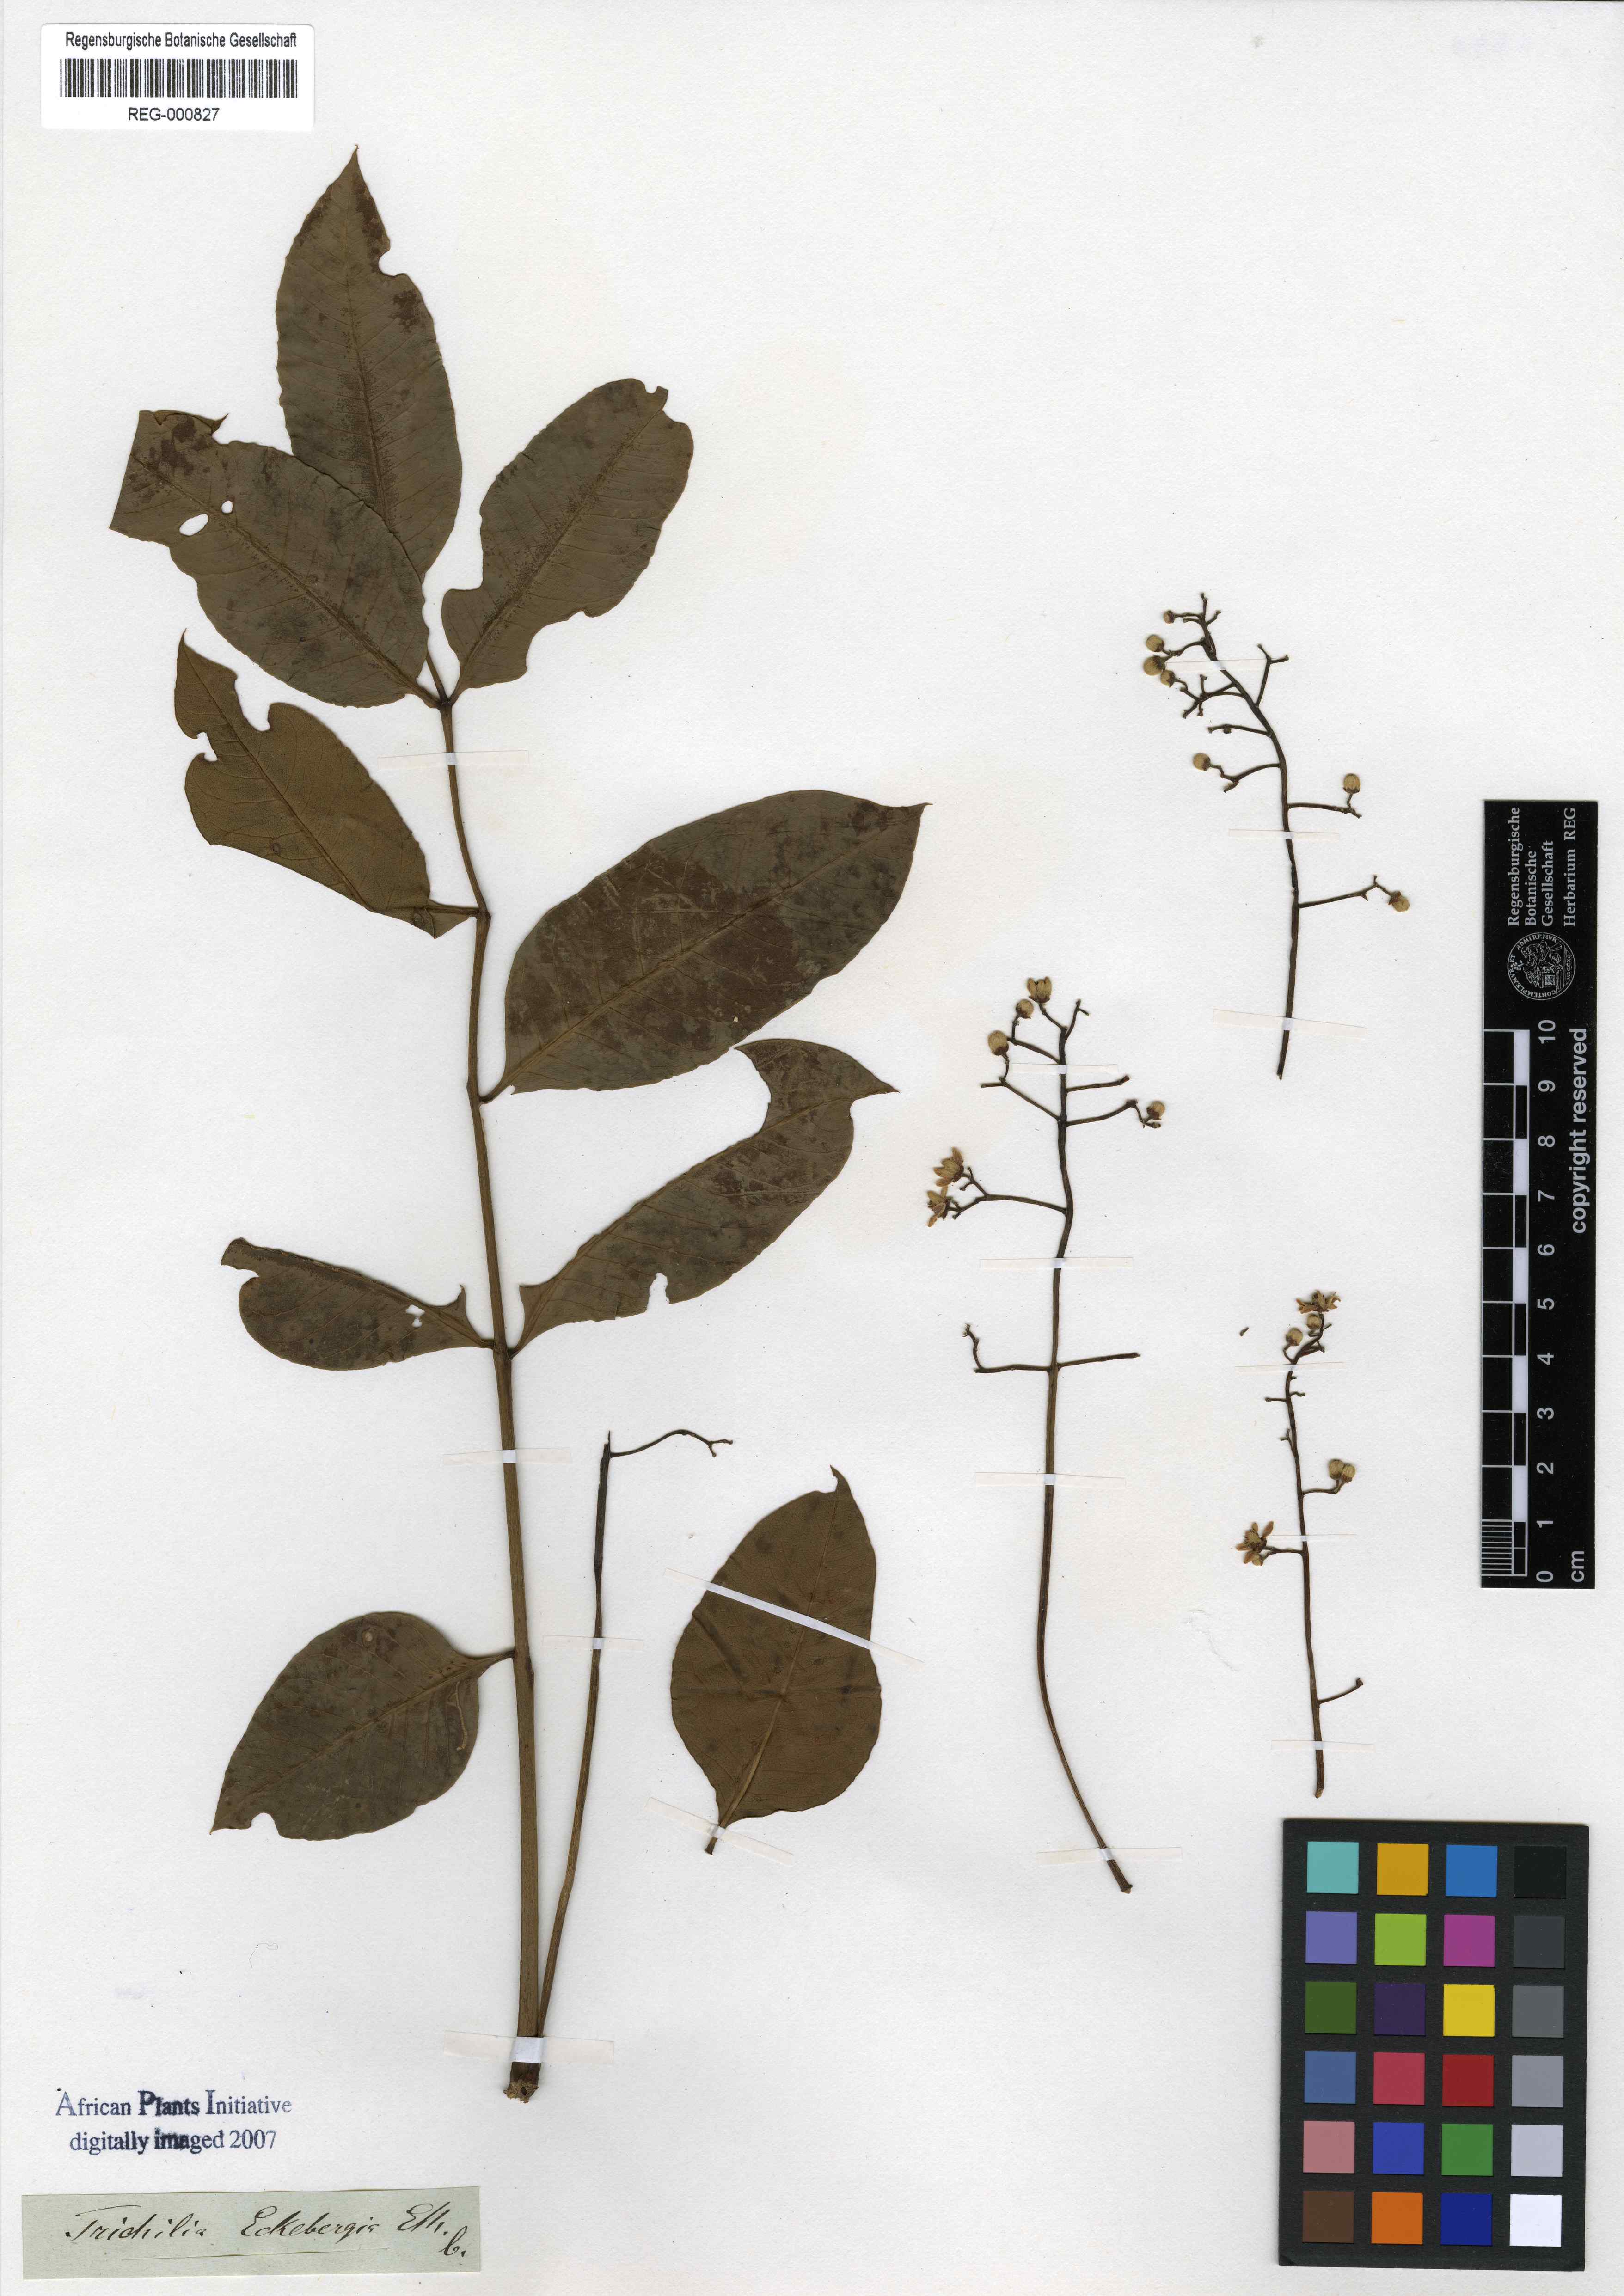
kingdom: Plantae
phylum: Tracheophyta
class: Magnoliopsida
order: Sapindales
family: Meliaceae
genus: Ekebergia
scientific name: Ekebergia capensis
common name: Cape-ash
